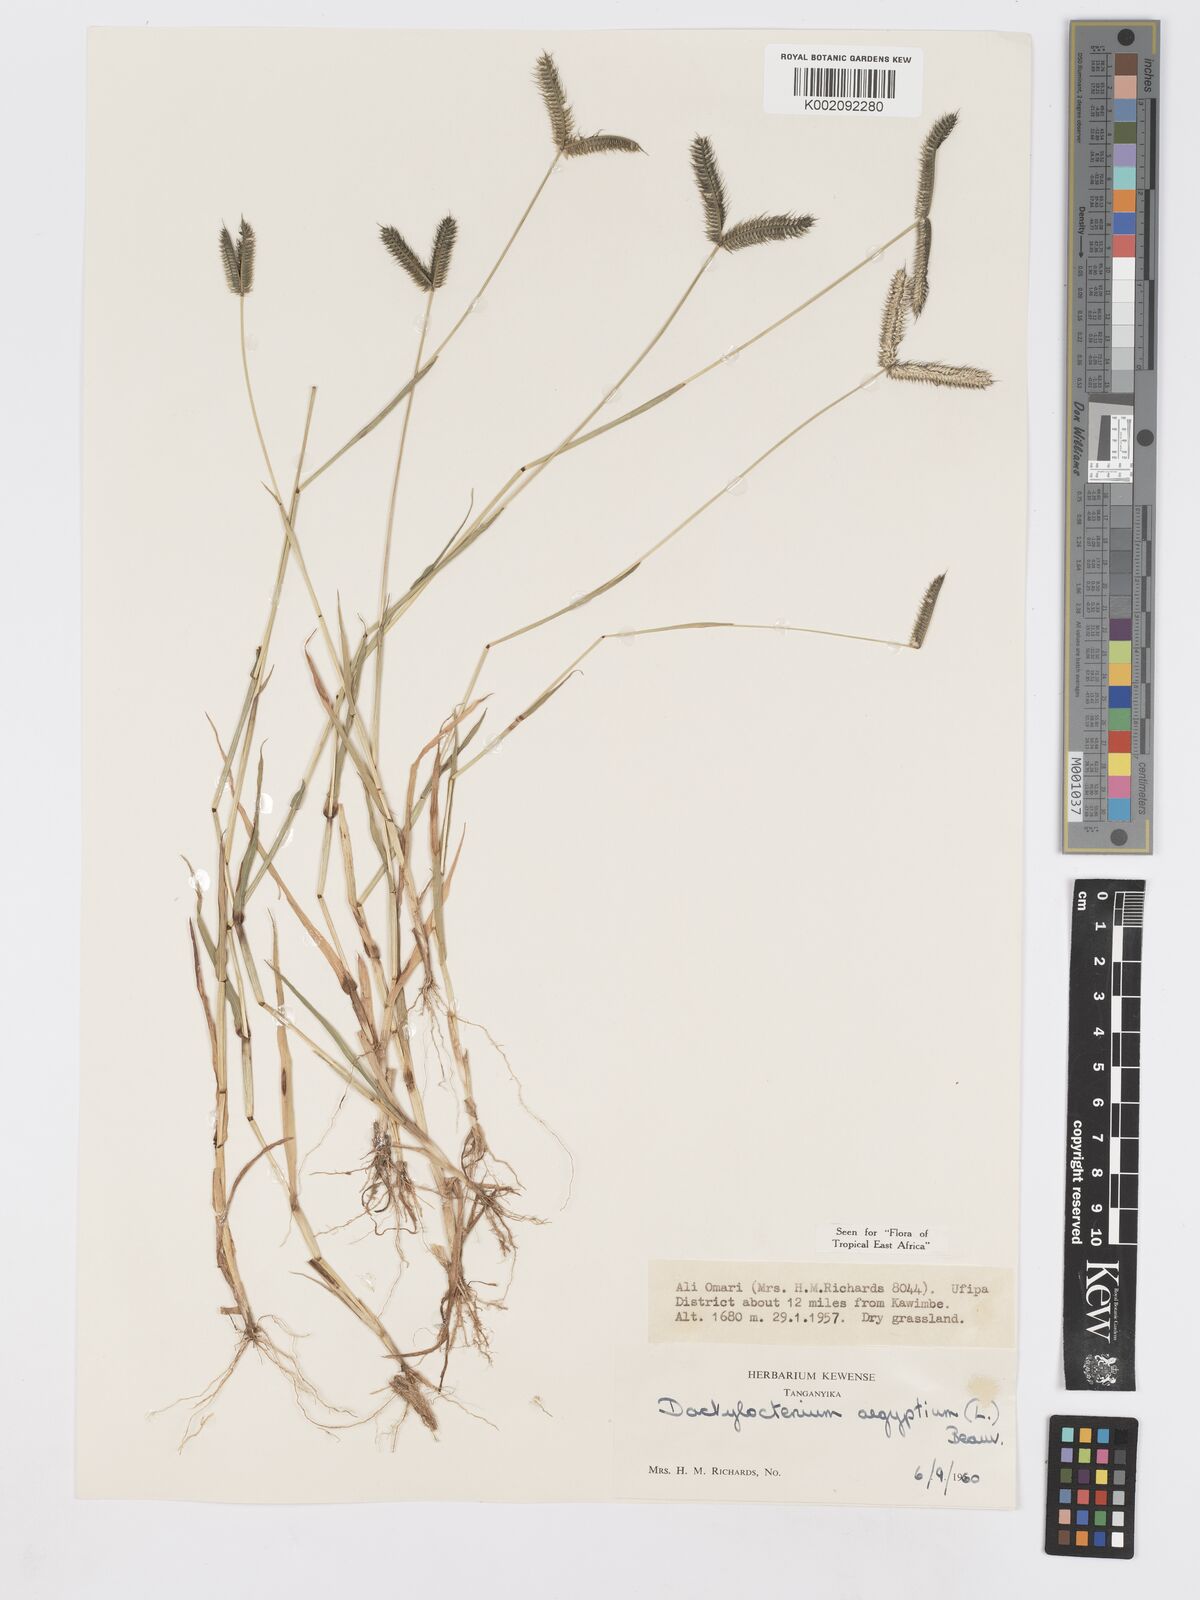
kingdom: Plantae
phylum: Tracheophyta
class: Liliopsida
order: Poales
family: Poaceae
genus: Dactyloctenium
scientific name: Dactyloctenium aegyptium
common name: Egyptian grass
